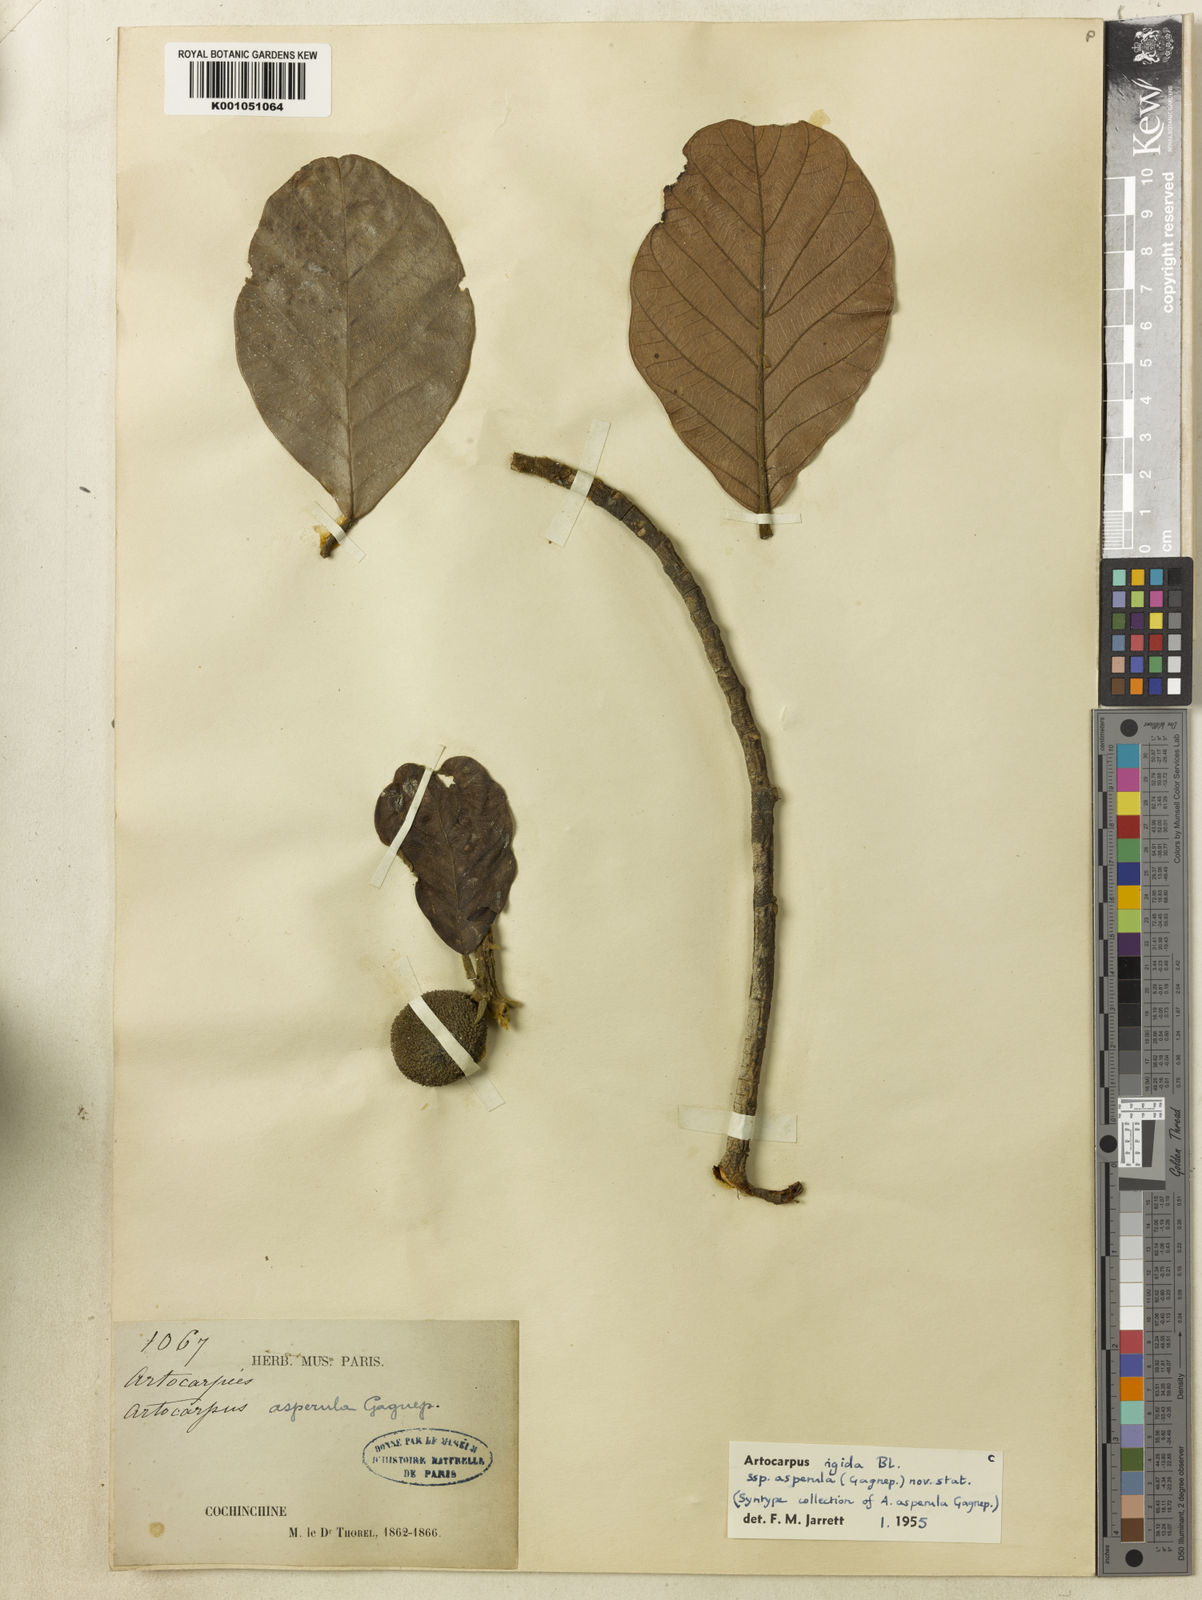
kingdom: Plantae
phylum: Tracheophyta
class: Magnoliopsida
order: Rosales
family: Moraceae
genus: Artocarpus
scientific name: Artocarpus rigidus
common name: Monkey-jack
